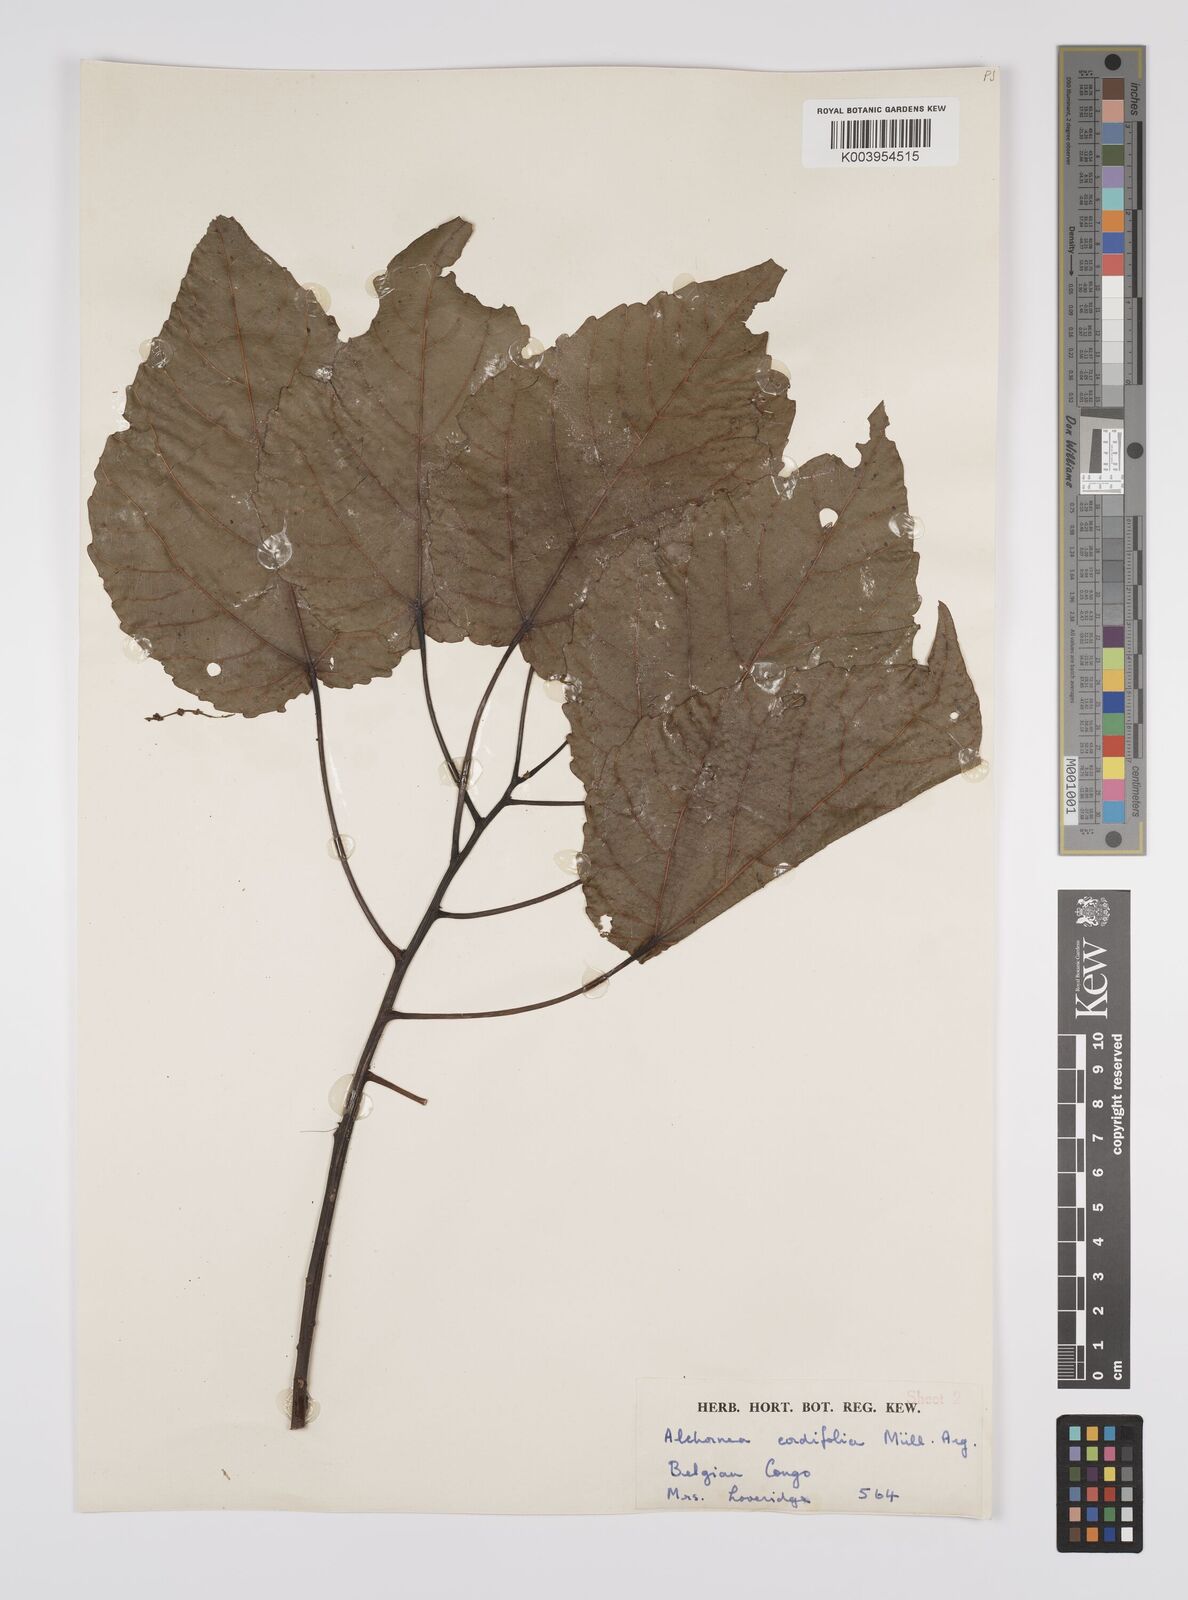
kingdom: Plantae
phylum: Tracheophyta
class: Magnoliopsida
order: Malpighiales
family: Euphorbiaceae
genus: Alchornea
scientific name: Alchornea cordifolia
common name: Christmasbush
